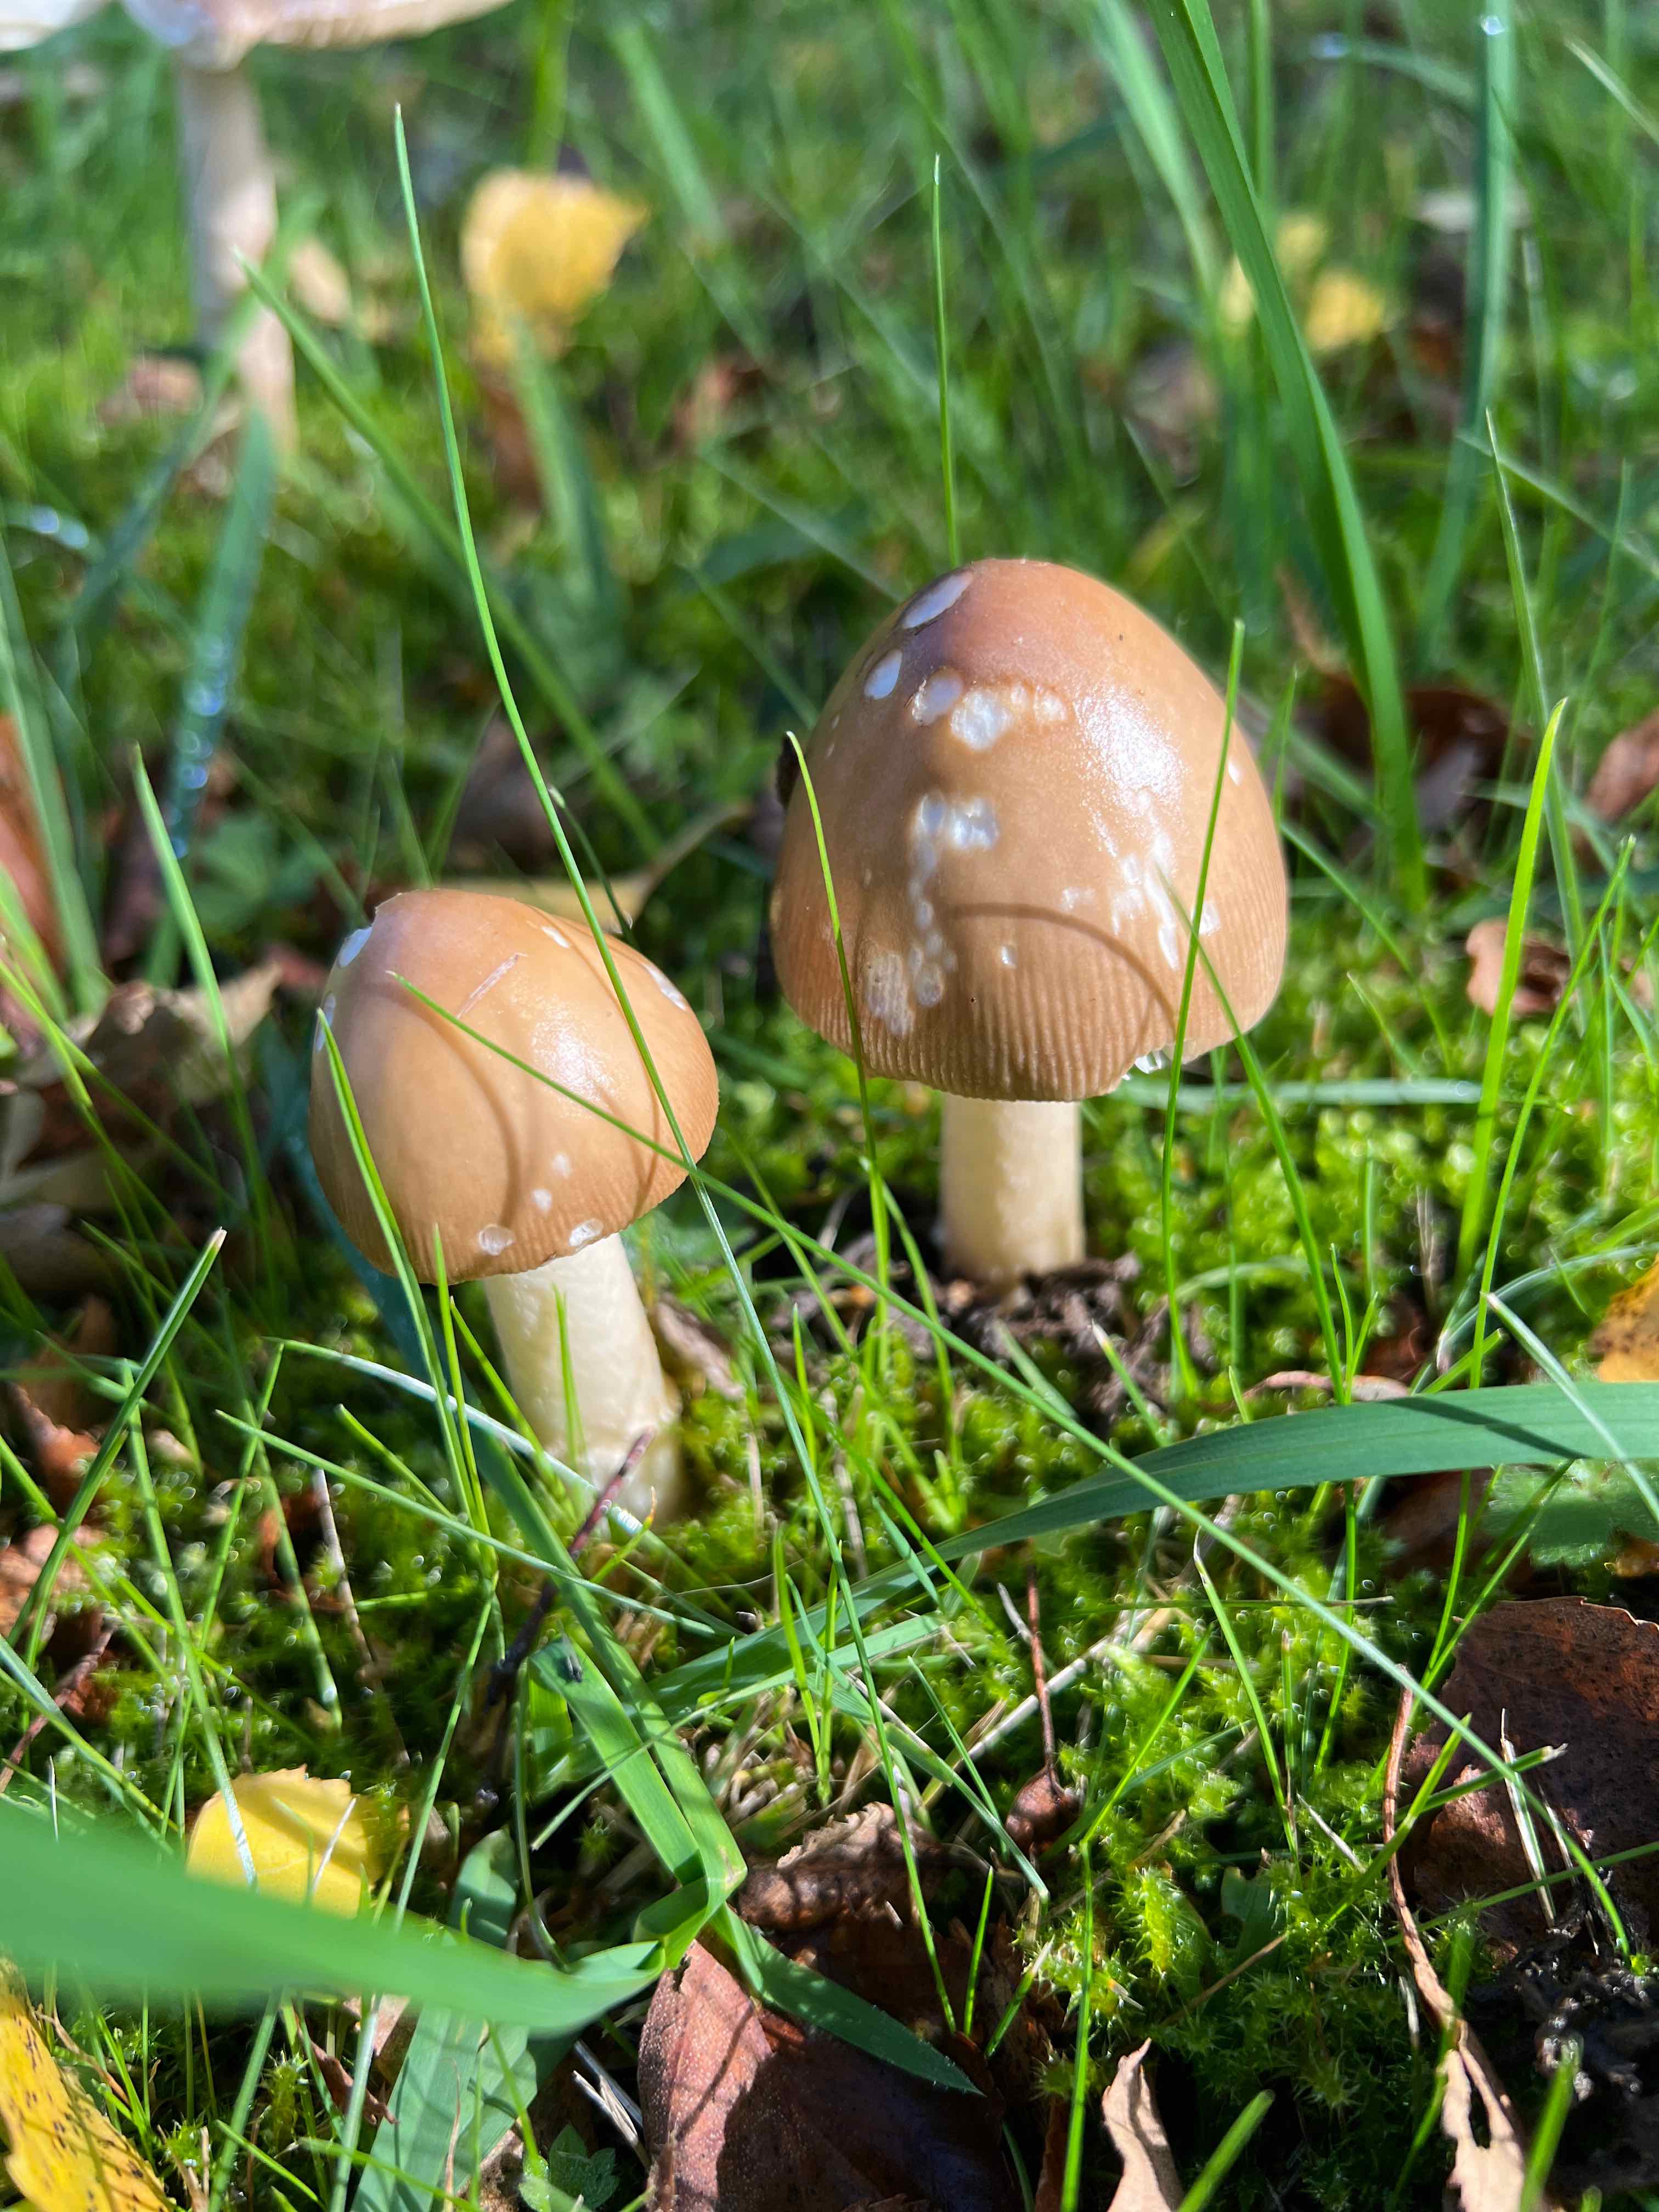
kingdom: Fungi
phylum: Basidiomycota
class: Agaricomycetes
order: Agaricales
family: Amanitaceae
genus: Amanita
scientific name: Amanita fulva
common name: brun kam-fluesvamp
